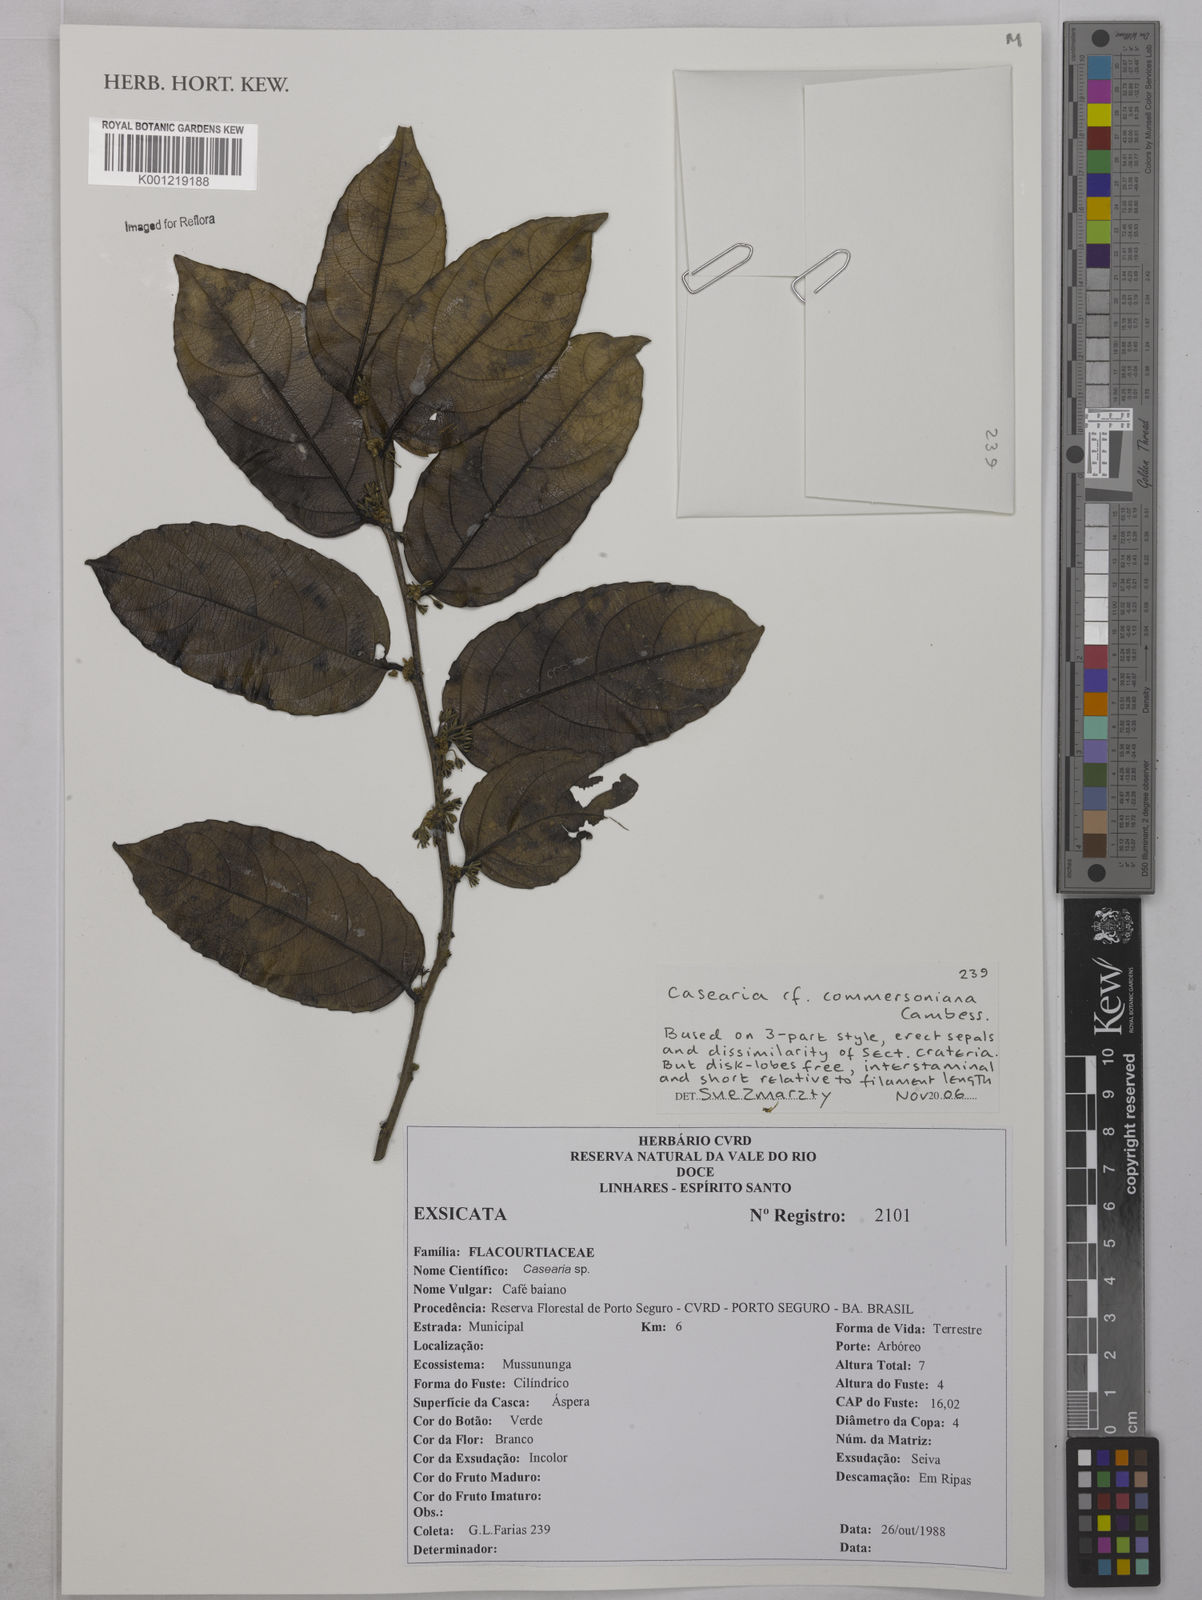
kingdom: Plantae
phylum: Tracheophyta
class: Magnoliopsida
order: Malpighiales
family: Salicaceae
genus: Piparea
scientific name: Piparea dentata
